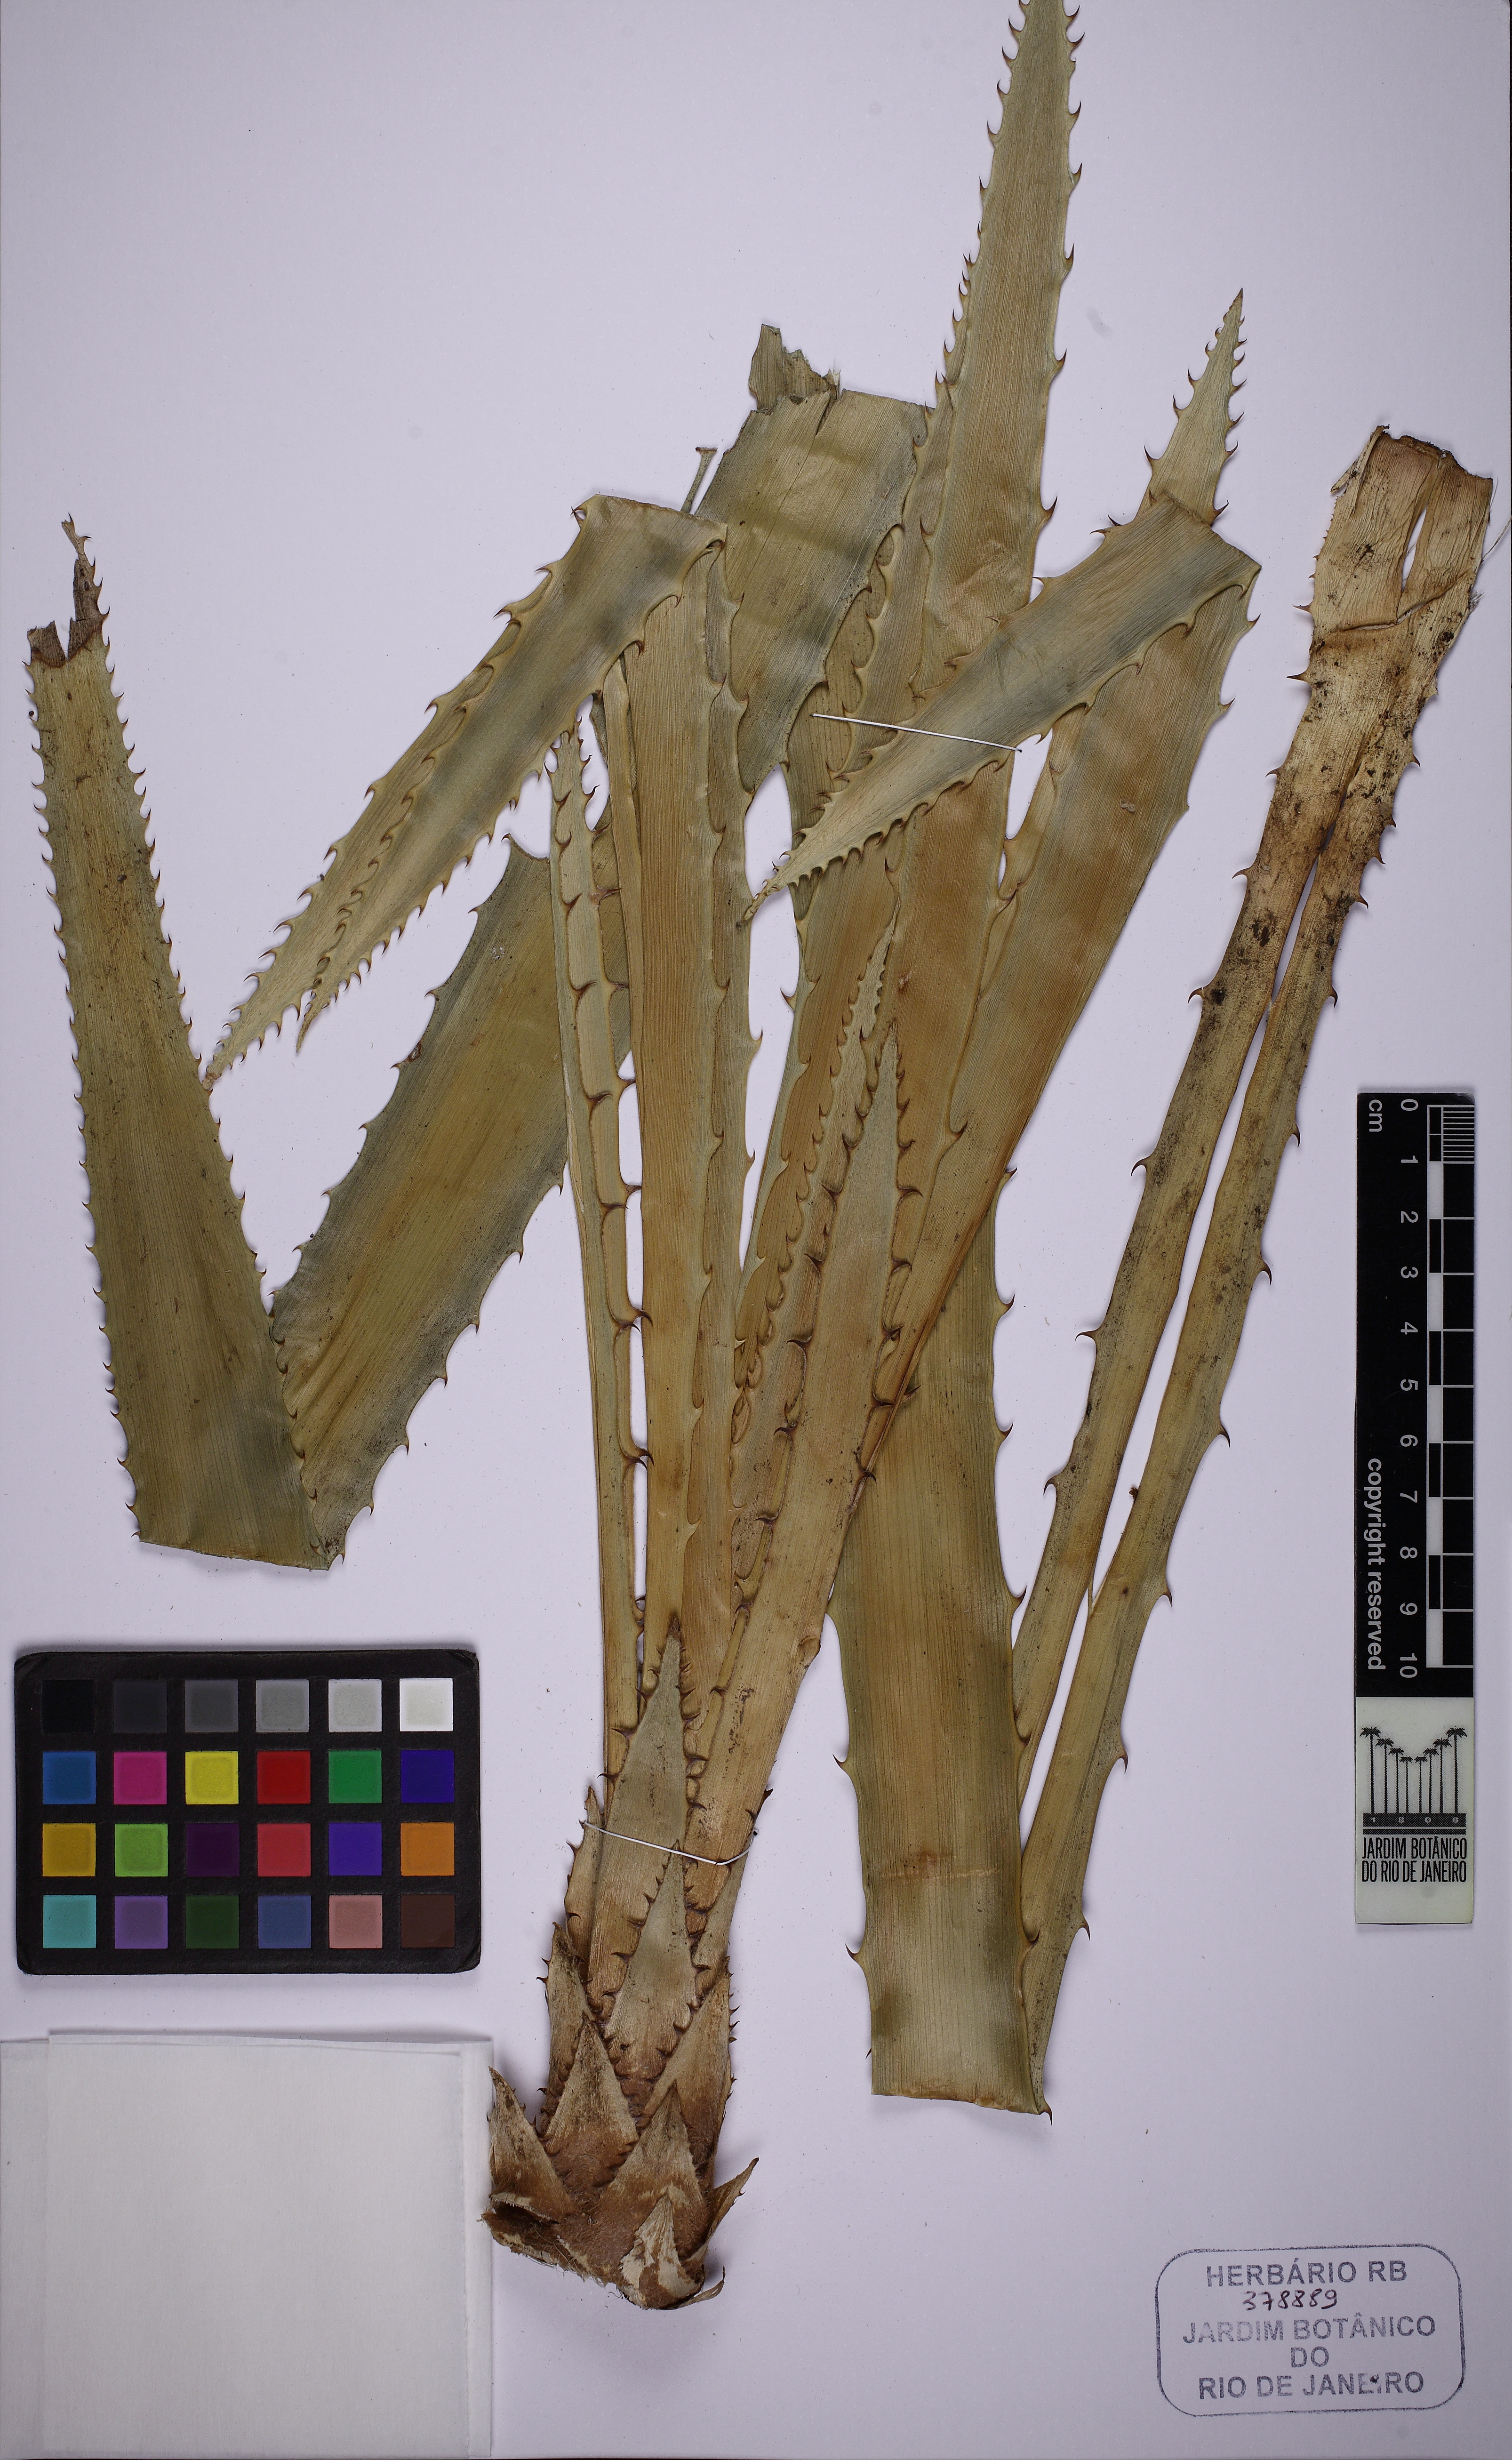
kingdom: Plantae
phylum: Tracheophyta
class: Liliopsida
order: Poales
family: Bromeliaceae
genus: Bromelia
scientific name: Bromelia antiacantha
